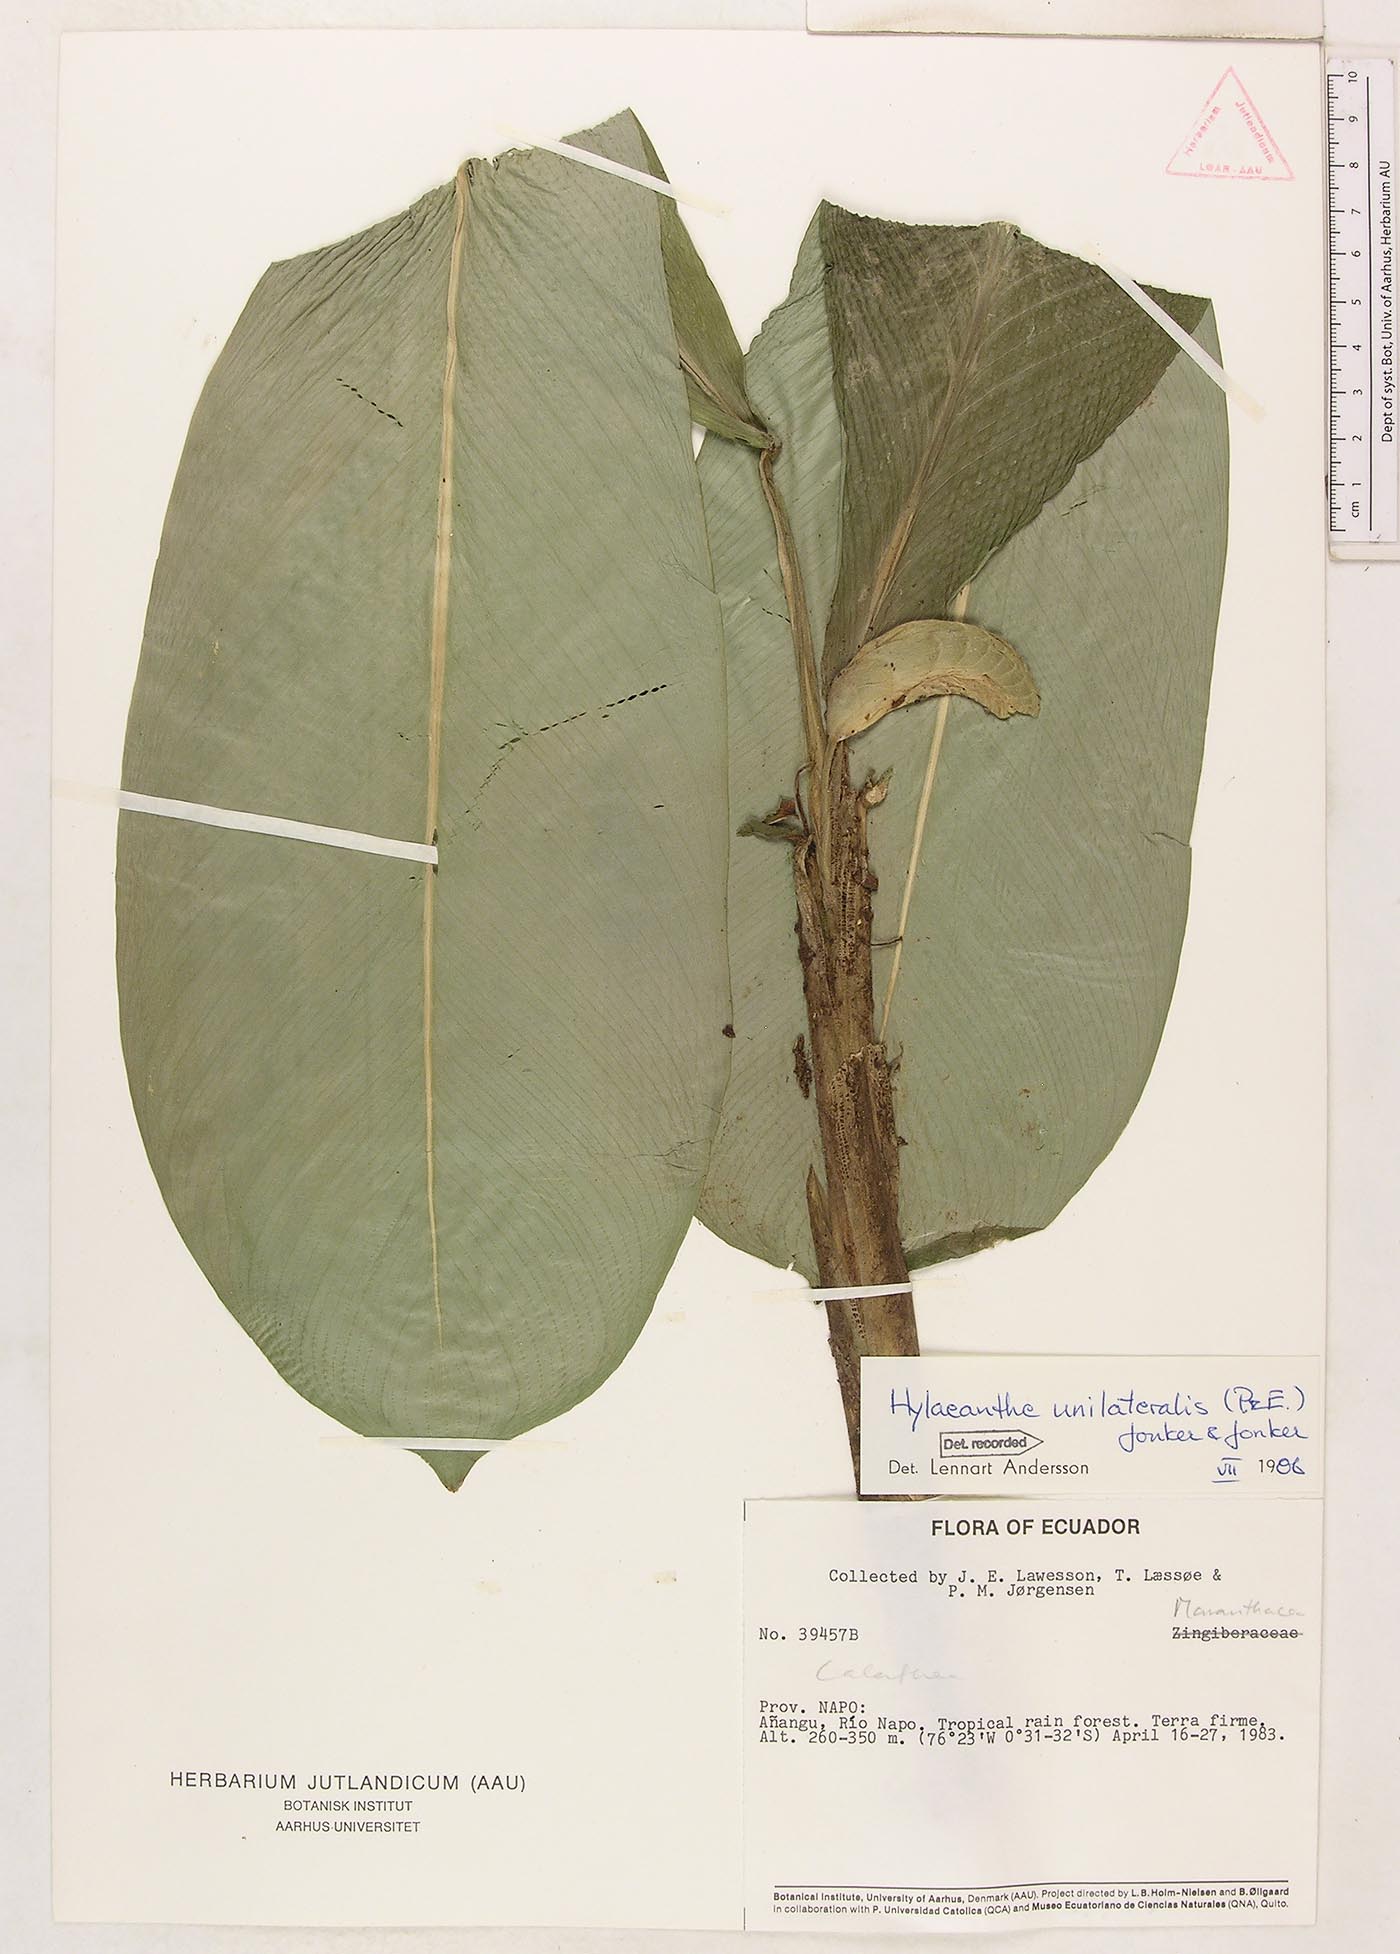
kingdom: Plantae
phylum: Tracheophyta
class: Liliopsida
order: Zingiberales
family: Marantaceae
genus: Hylaeanthe
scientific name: Hylaeanthe unilateralis
